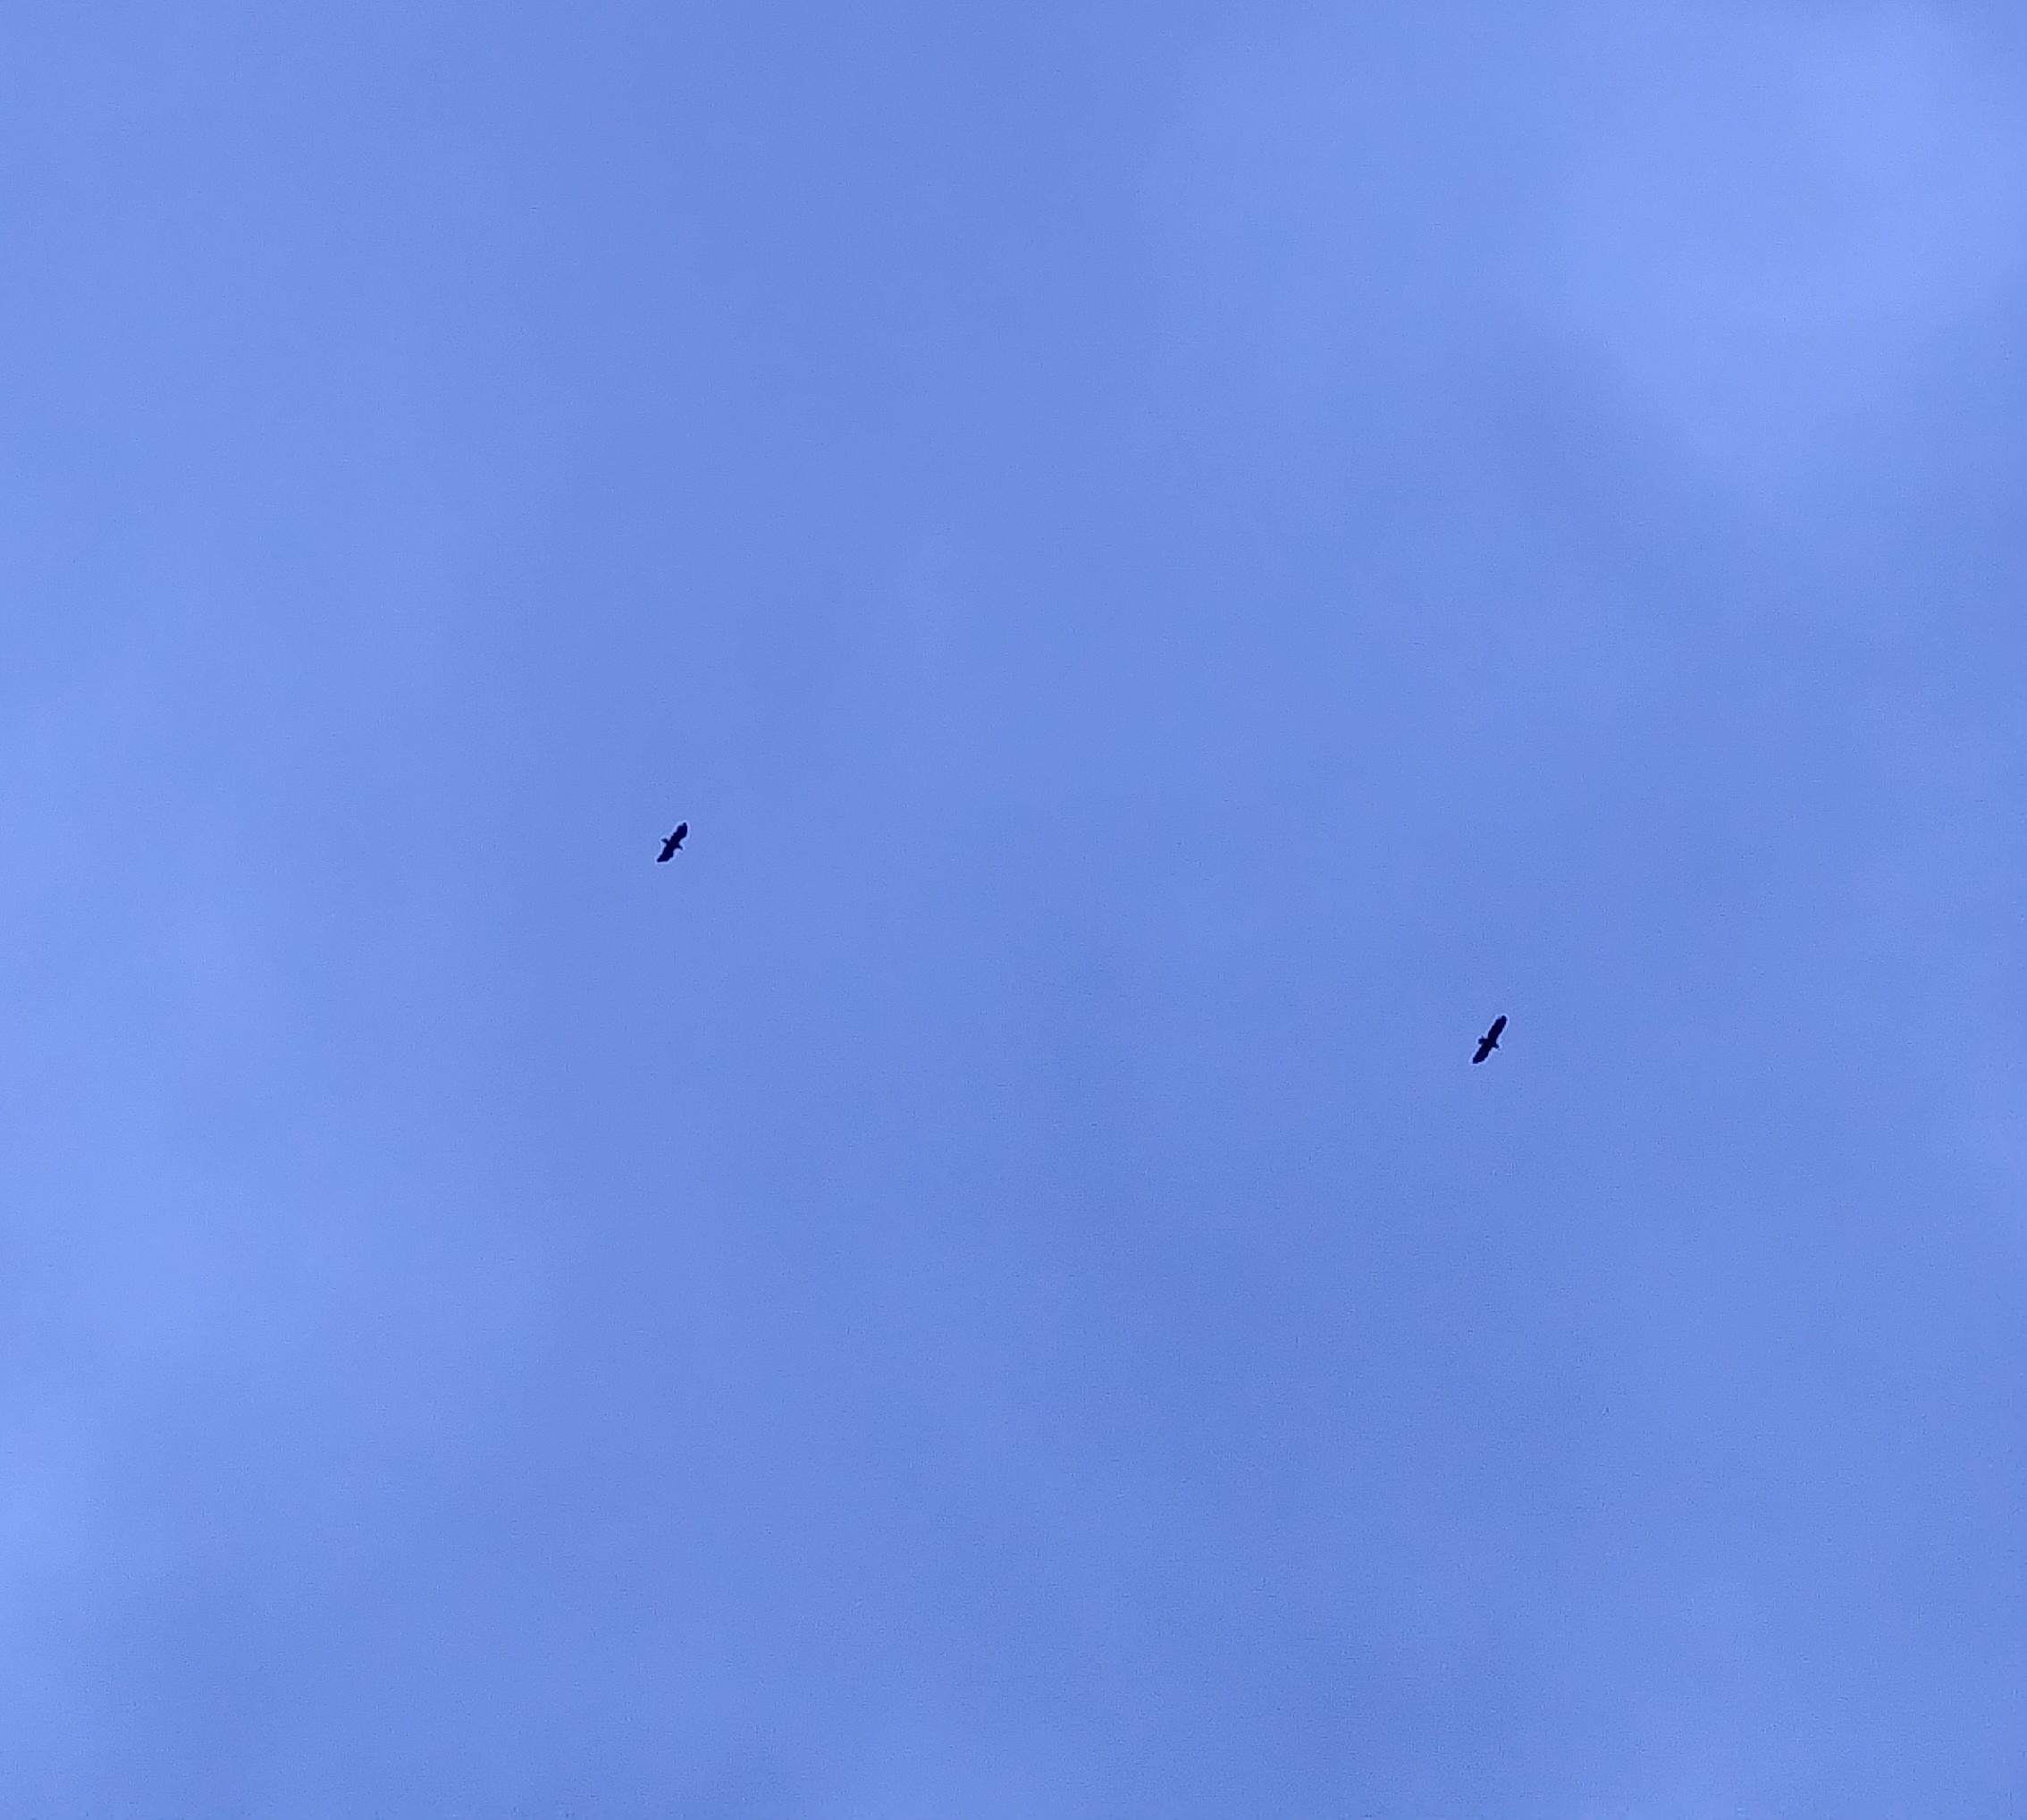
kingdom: Animalia
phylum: Chordata
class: Aves
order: Accipitriformes
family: Accipitridae
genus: Haliaeetus
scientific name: Haliaeetus albicilla
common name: Havørn
